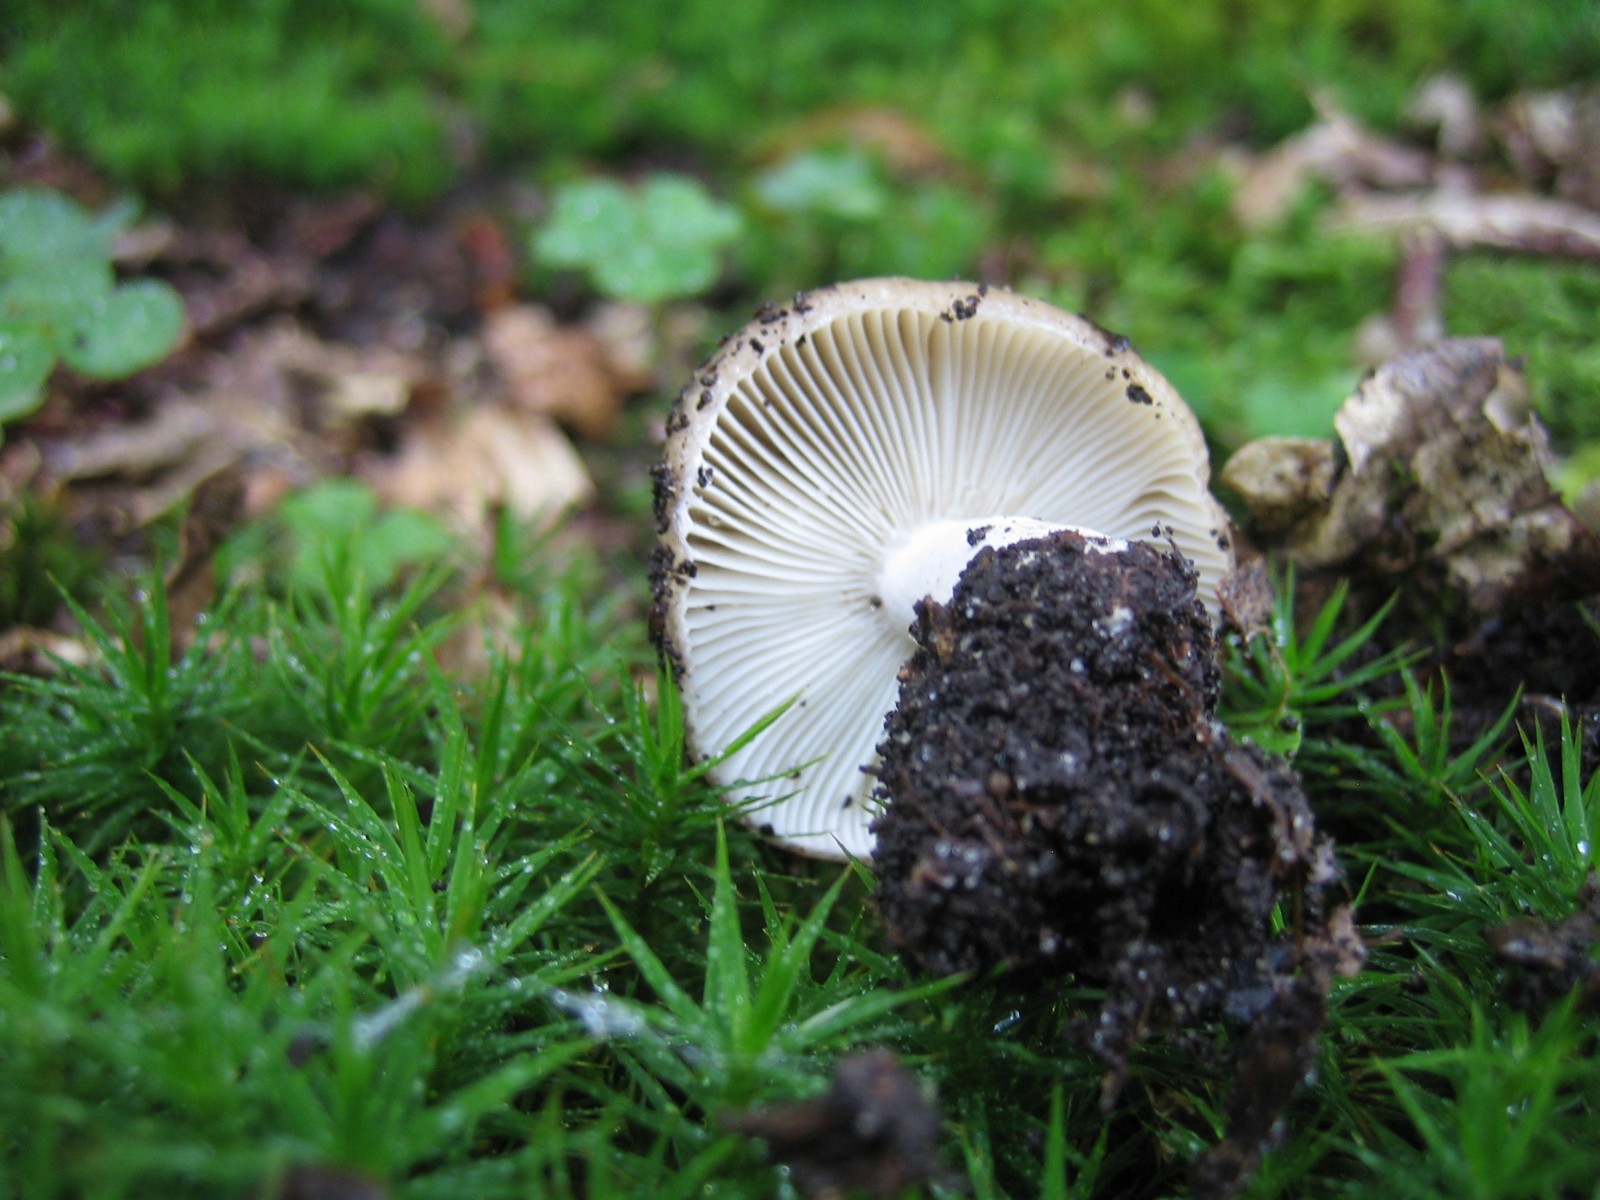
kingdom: Fungi
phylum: Basidiomycota
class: Agaricomycetes
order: Russulales
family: Russulaceae
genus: Russula
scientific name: Russula
